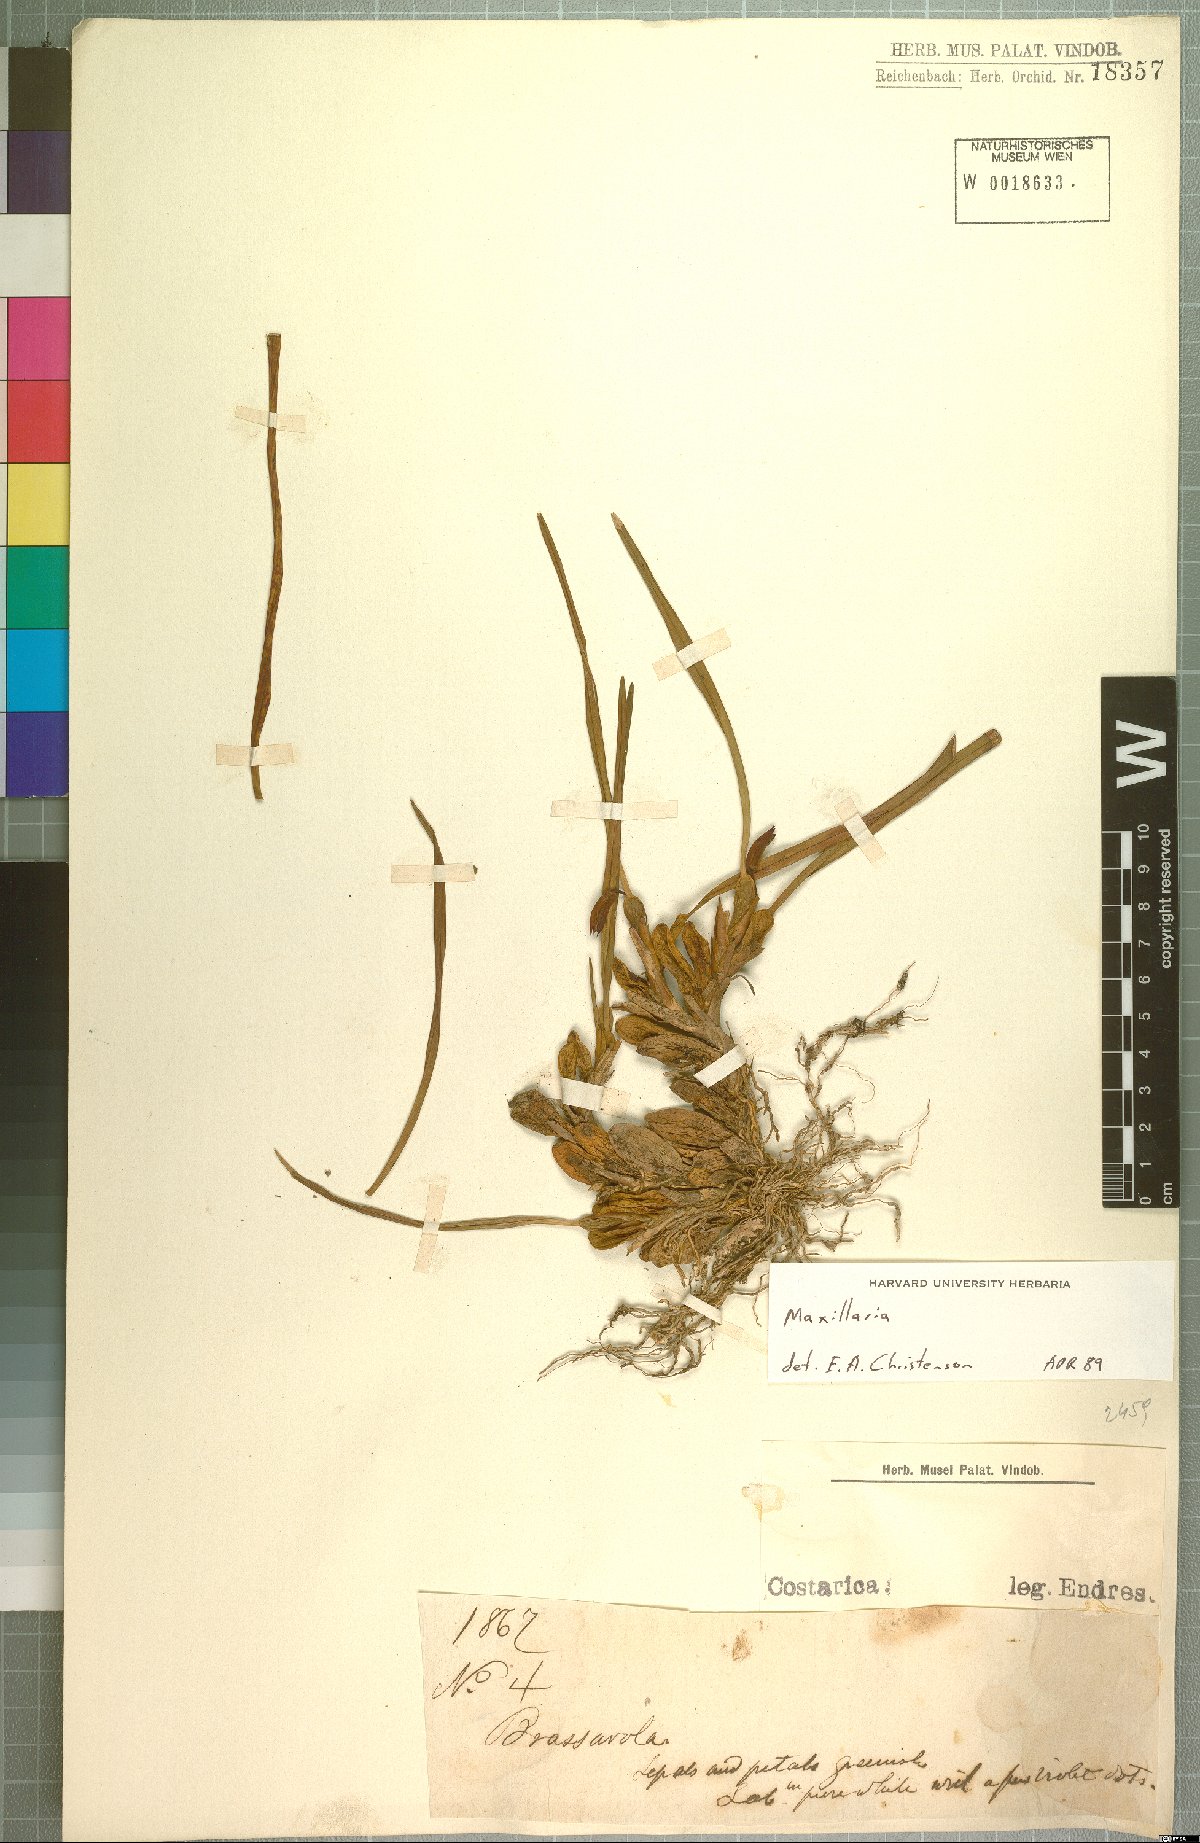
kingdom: Plantae
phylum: Tracheophyta
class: Liliopsida
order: Asparagales
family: Orchidaceae
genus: Maxillaria
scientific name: Maxillaria
